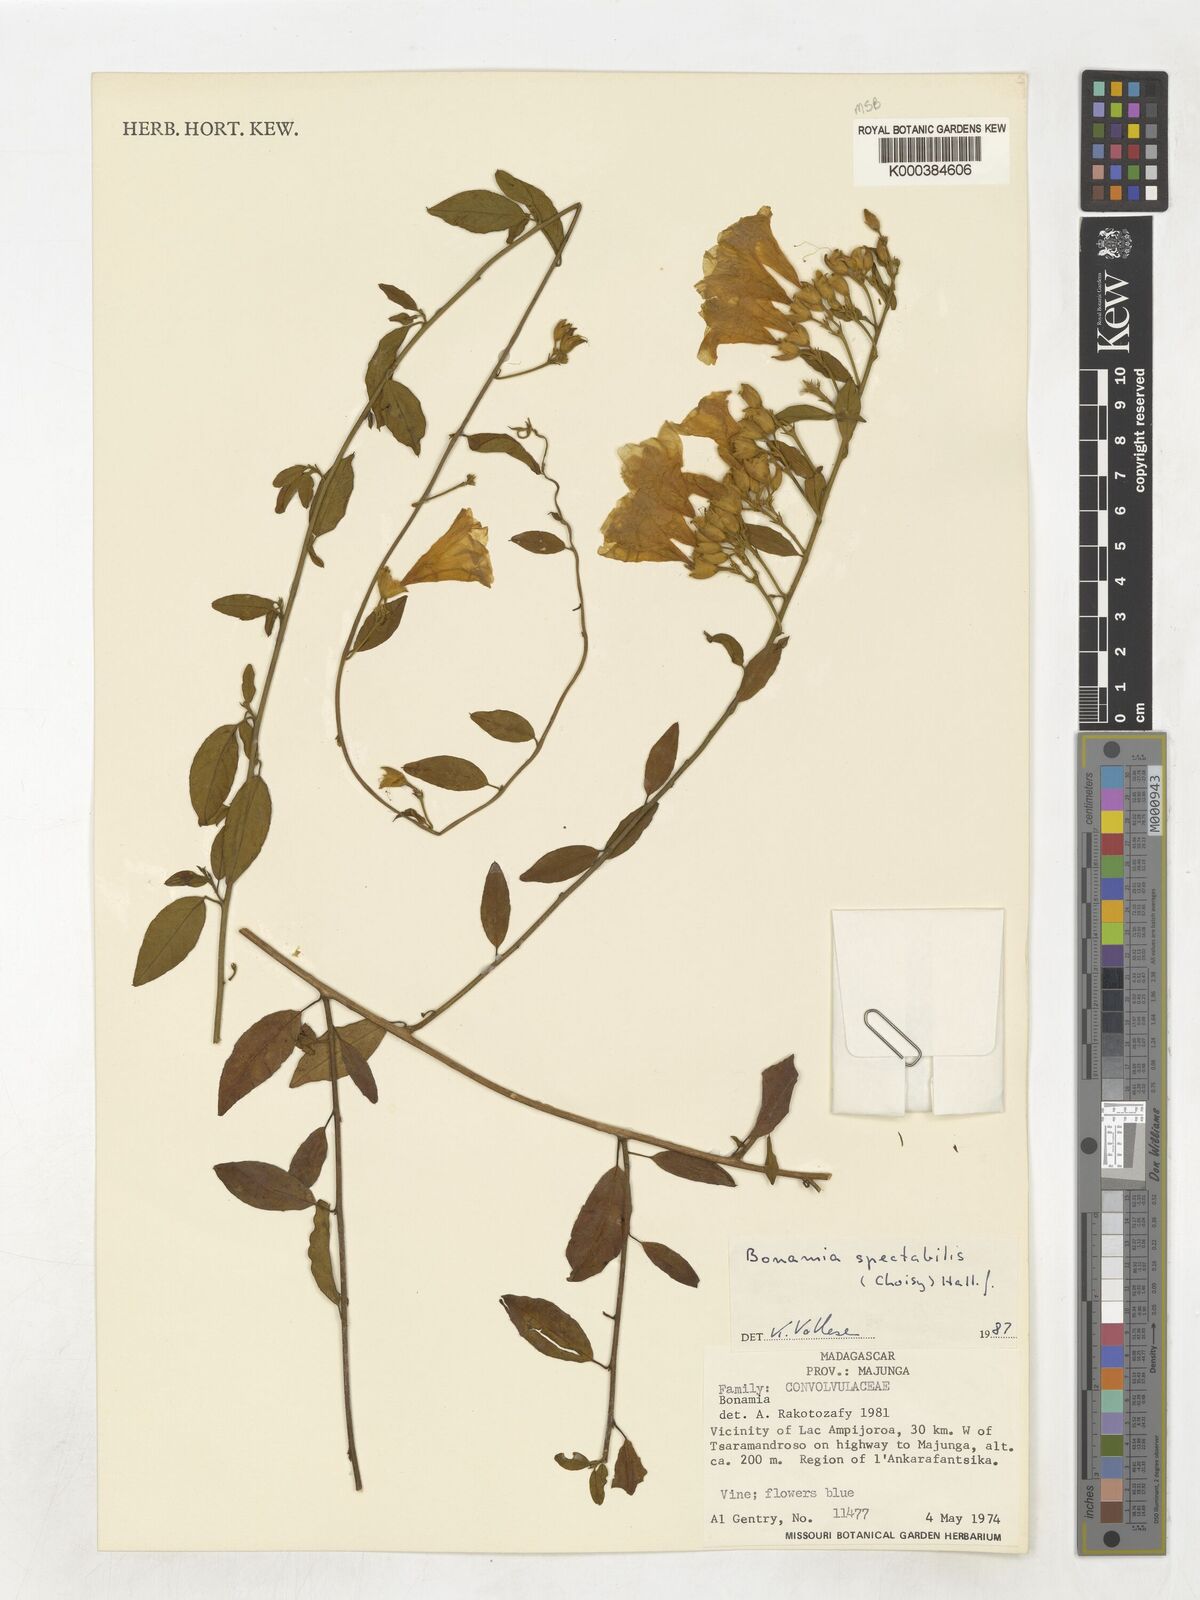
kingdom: Plantae
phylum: Tracheophyta
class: Magnoliopsida
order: Solanales
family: Convolvulaceae
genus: Bonamia
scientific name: Bonamia spectabilis
